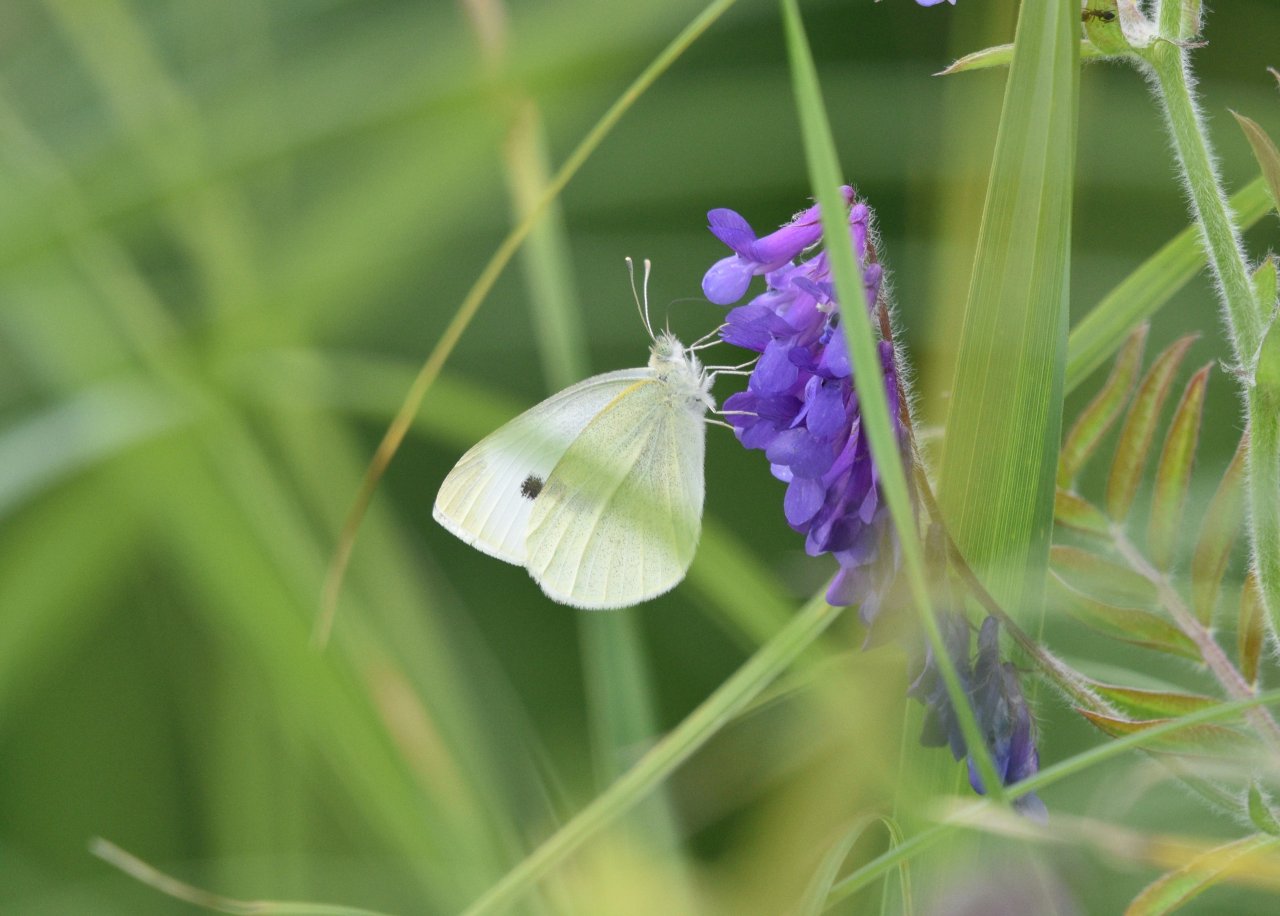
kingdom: Animalia
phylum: Arthropoda
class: Insecta
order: Lepidoptera
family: Pieridae
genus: Pieris
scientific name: Pieris rapae
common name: Cabbage White
